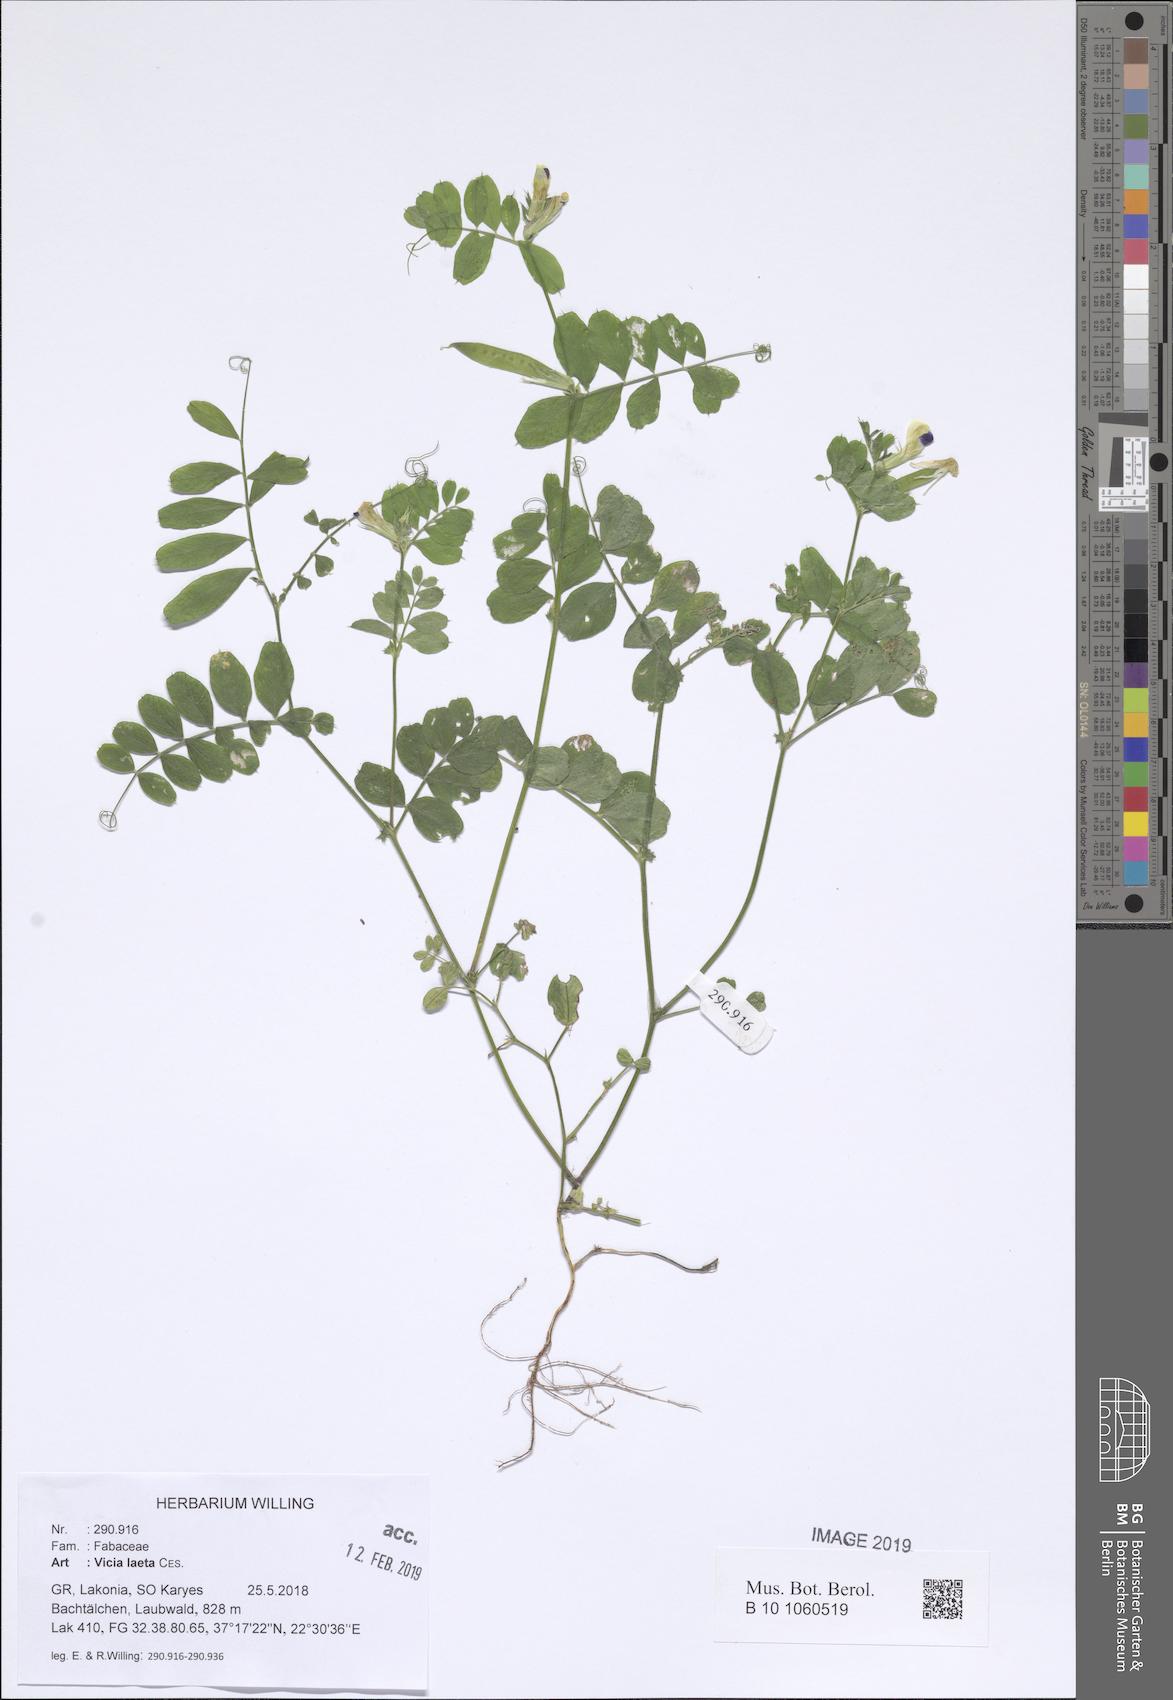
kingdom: Plantae
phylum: Tracheophyta
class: Magnoliopsida
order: Fabales
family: Fabaceae
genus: Vicia
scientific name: Vicia laeta
